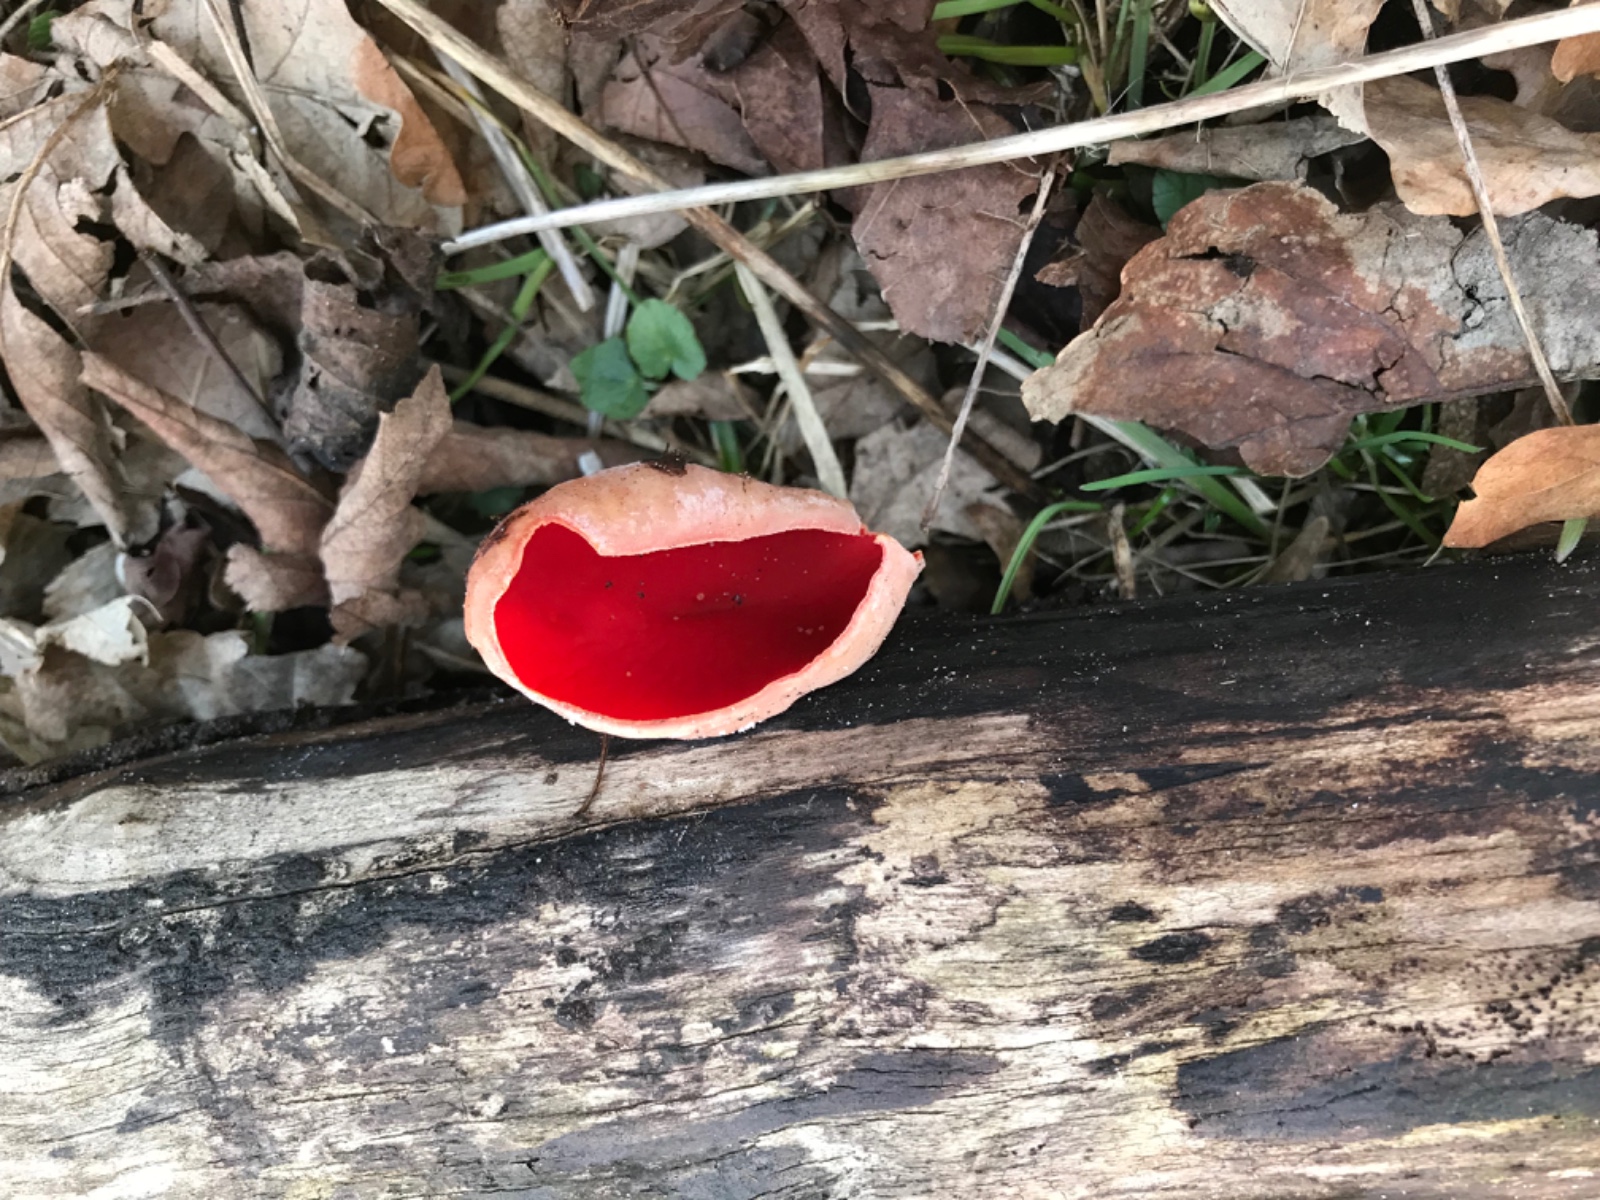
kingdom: Fungi
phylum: Ascomycota
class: Pezizomycetes
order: Pezizales
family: Sarcoscyphaceae
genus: Sarcoscypha
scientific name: Sarcoscypha austriaca
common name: krølhåret pragtbæger
